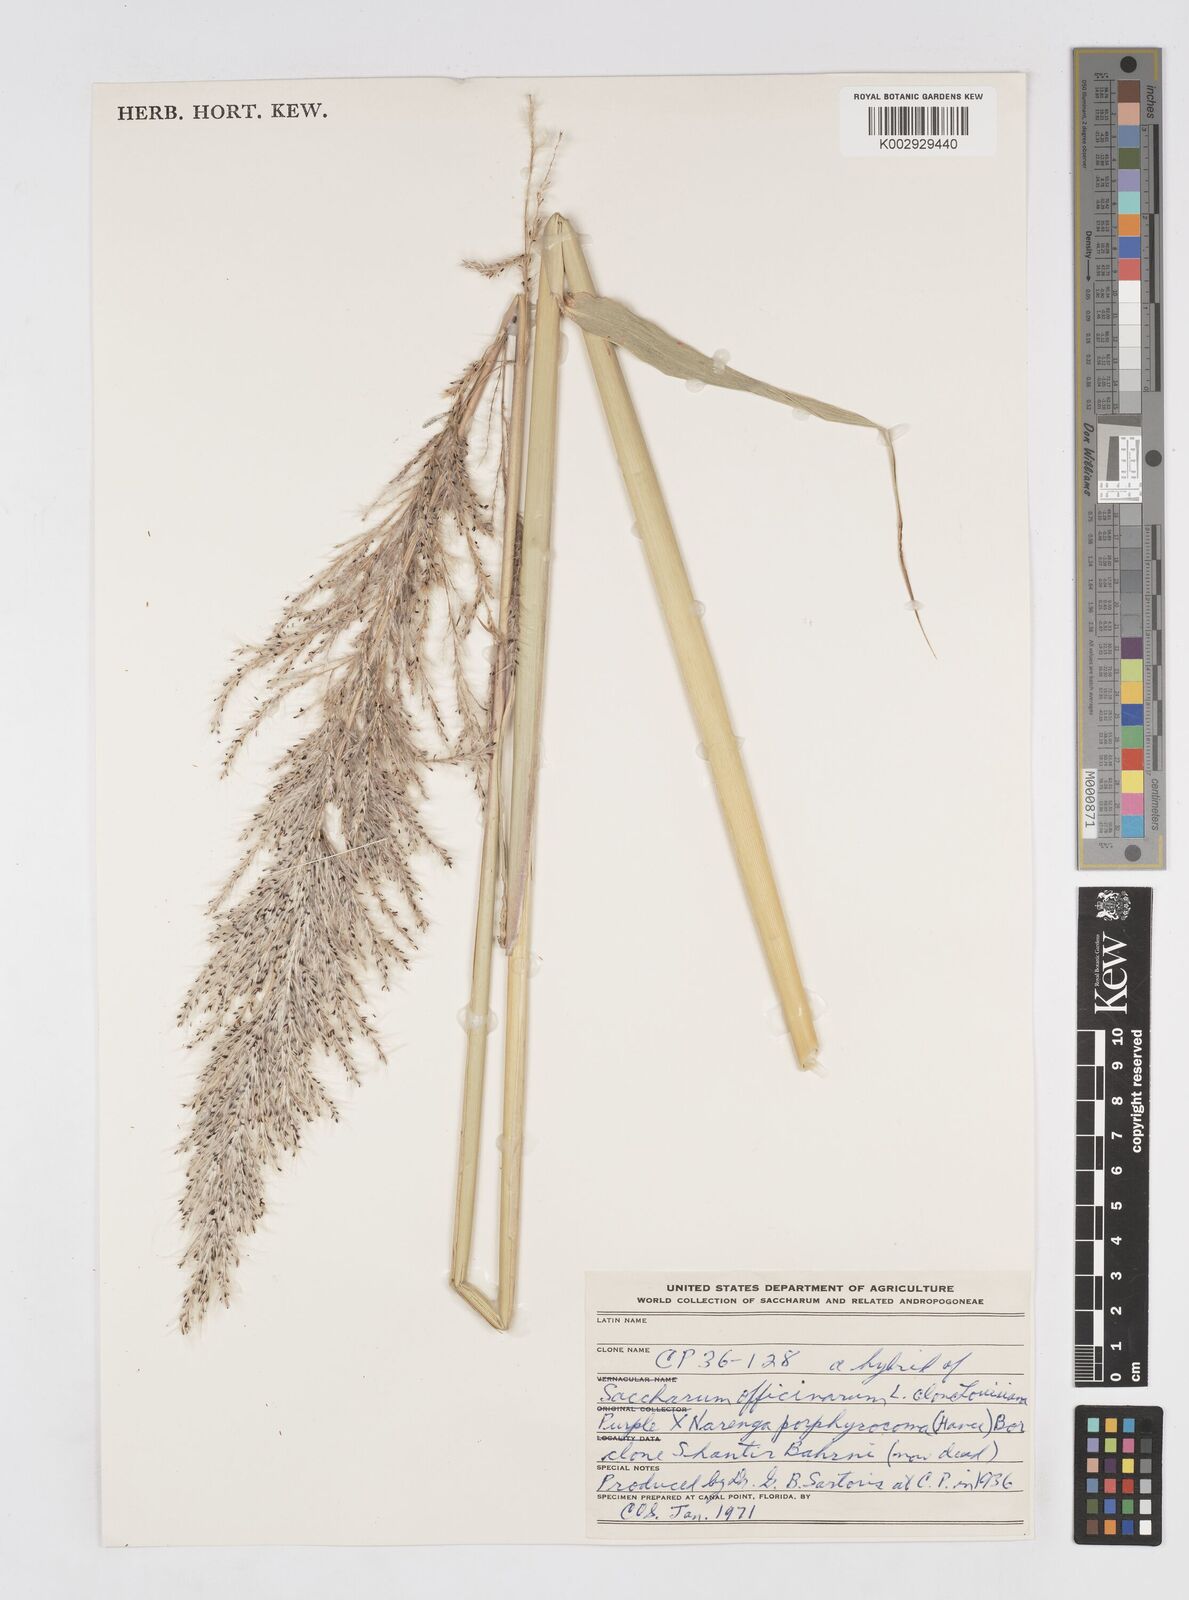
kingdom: Plantae
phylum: Tracheophyta
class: Liliopsida
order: Poales
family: Poaceae
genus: Saccharum
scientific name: Saccharum officinarum
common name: Sugarcane
